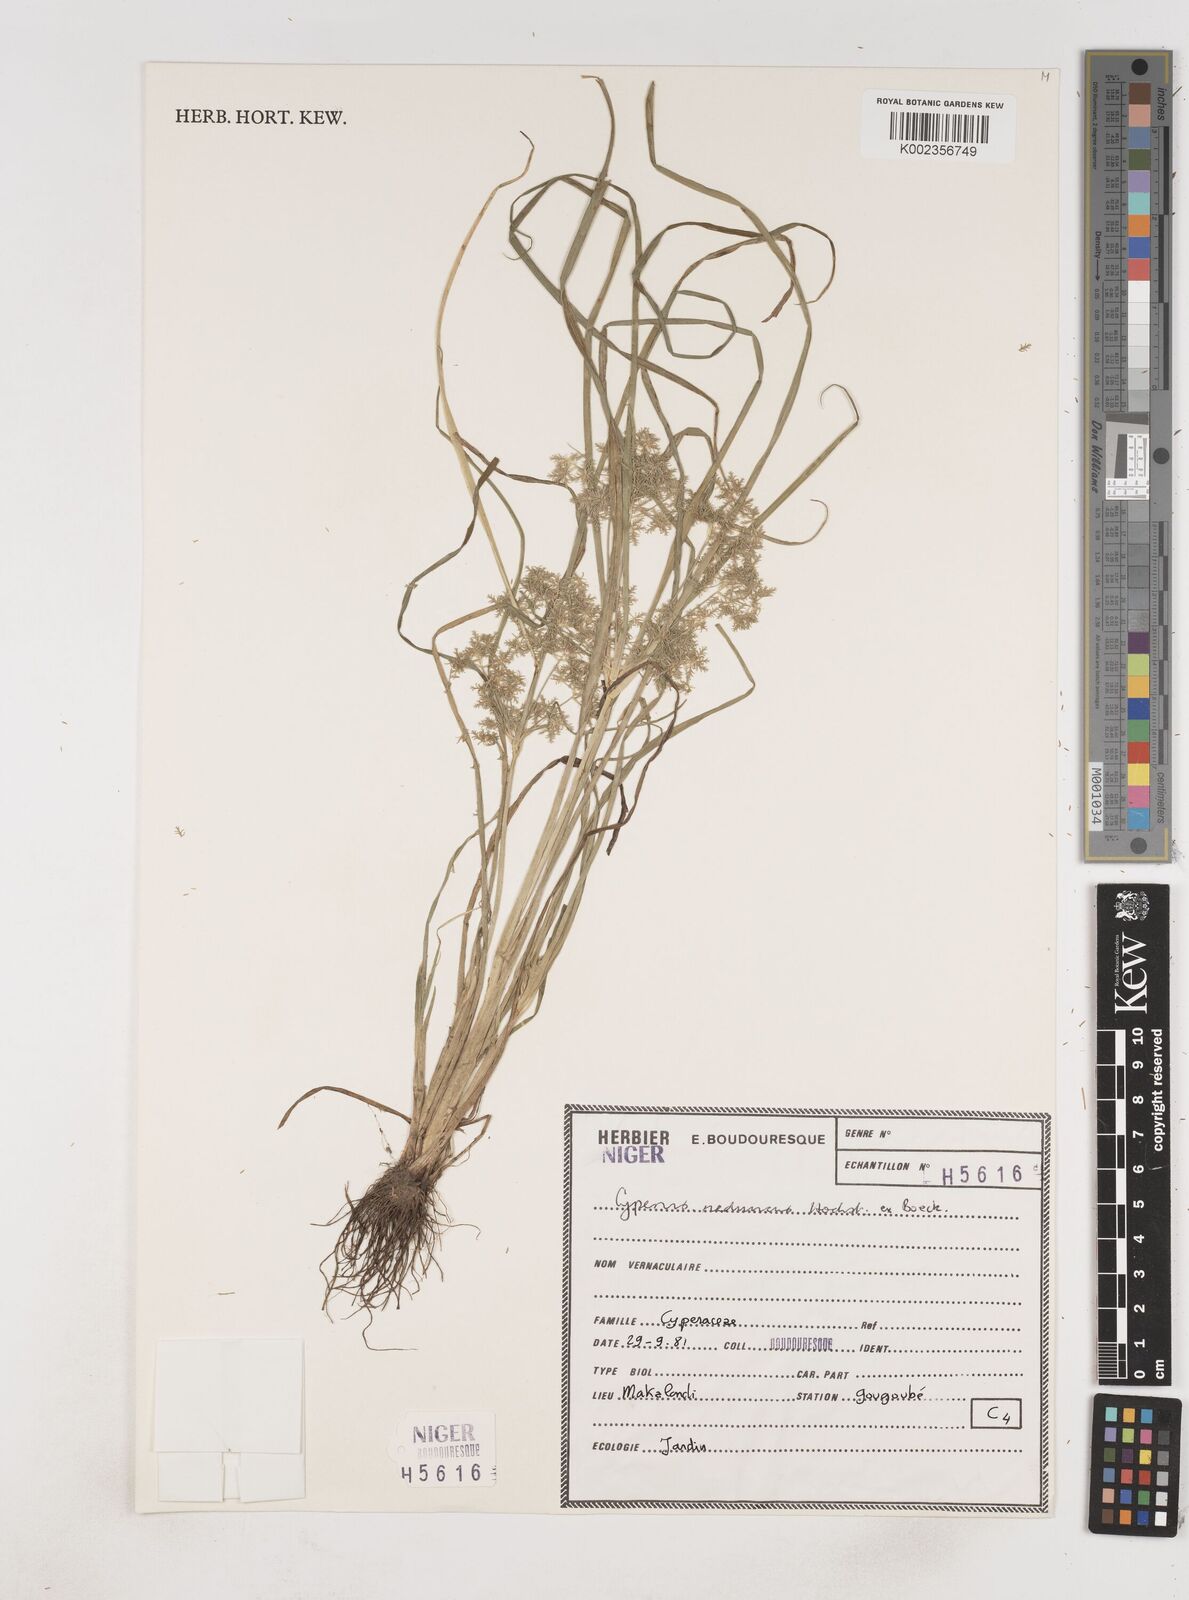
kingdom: Plantae
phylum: Tracheophyta
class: Liliopsida
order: Poales
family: Cyperaceae
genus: Cyperus
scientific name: Cyperus reduncus
